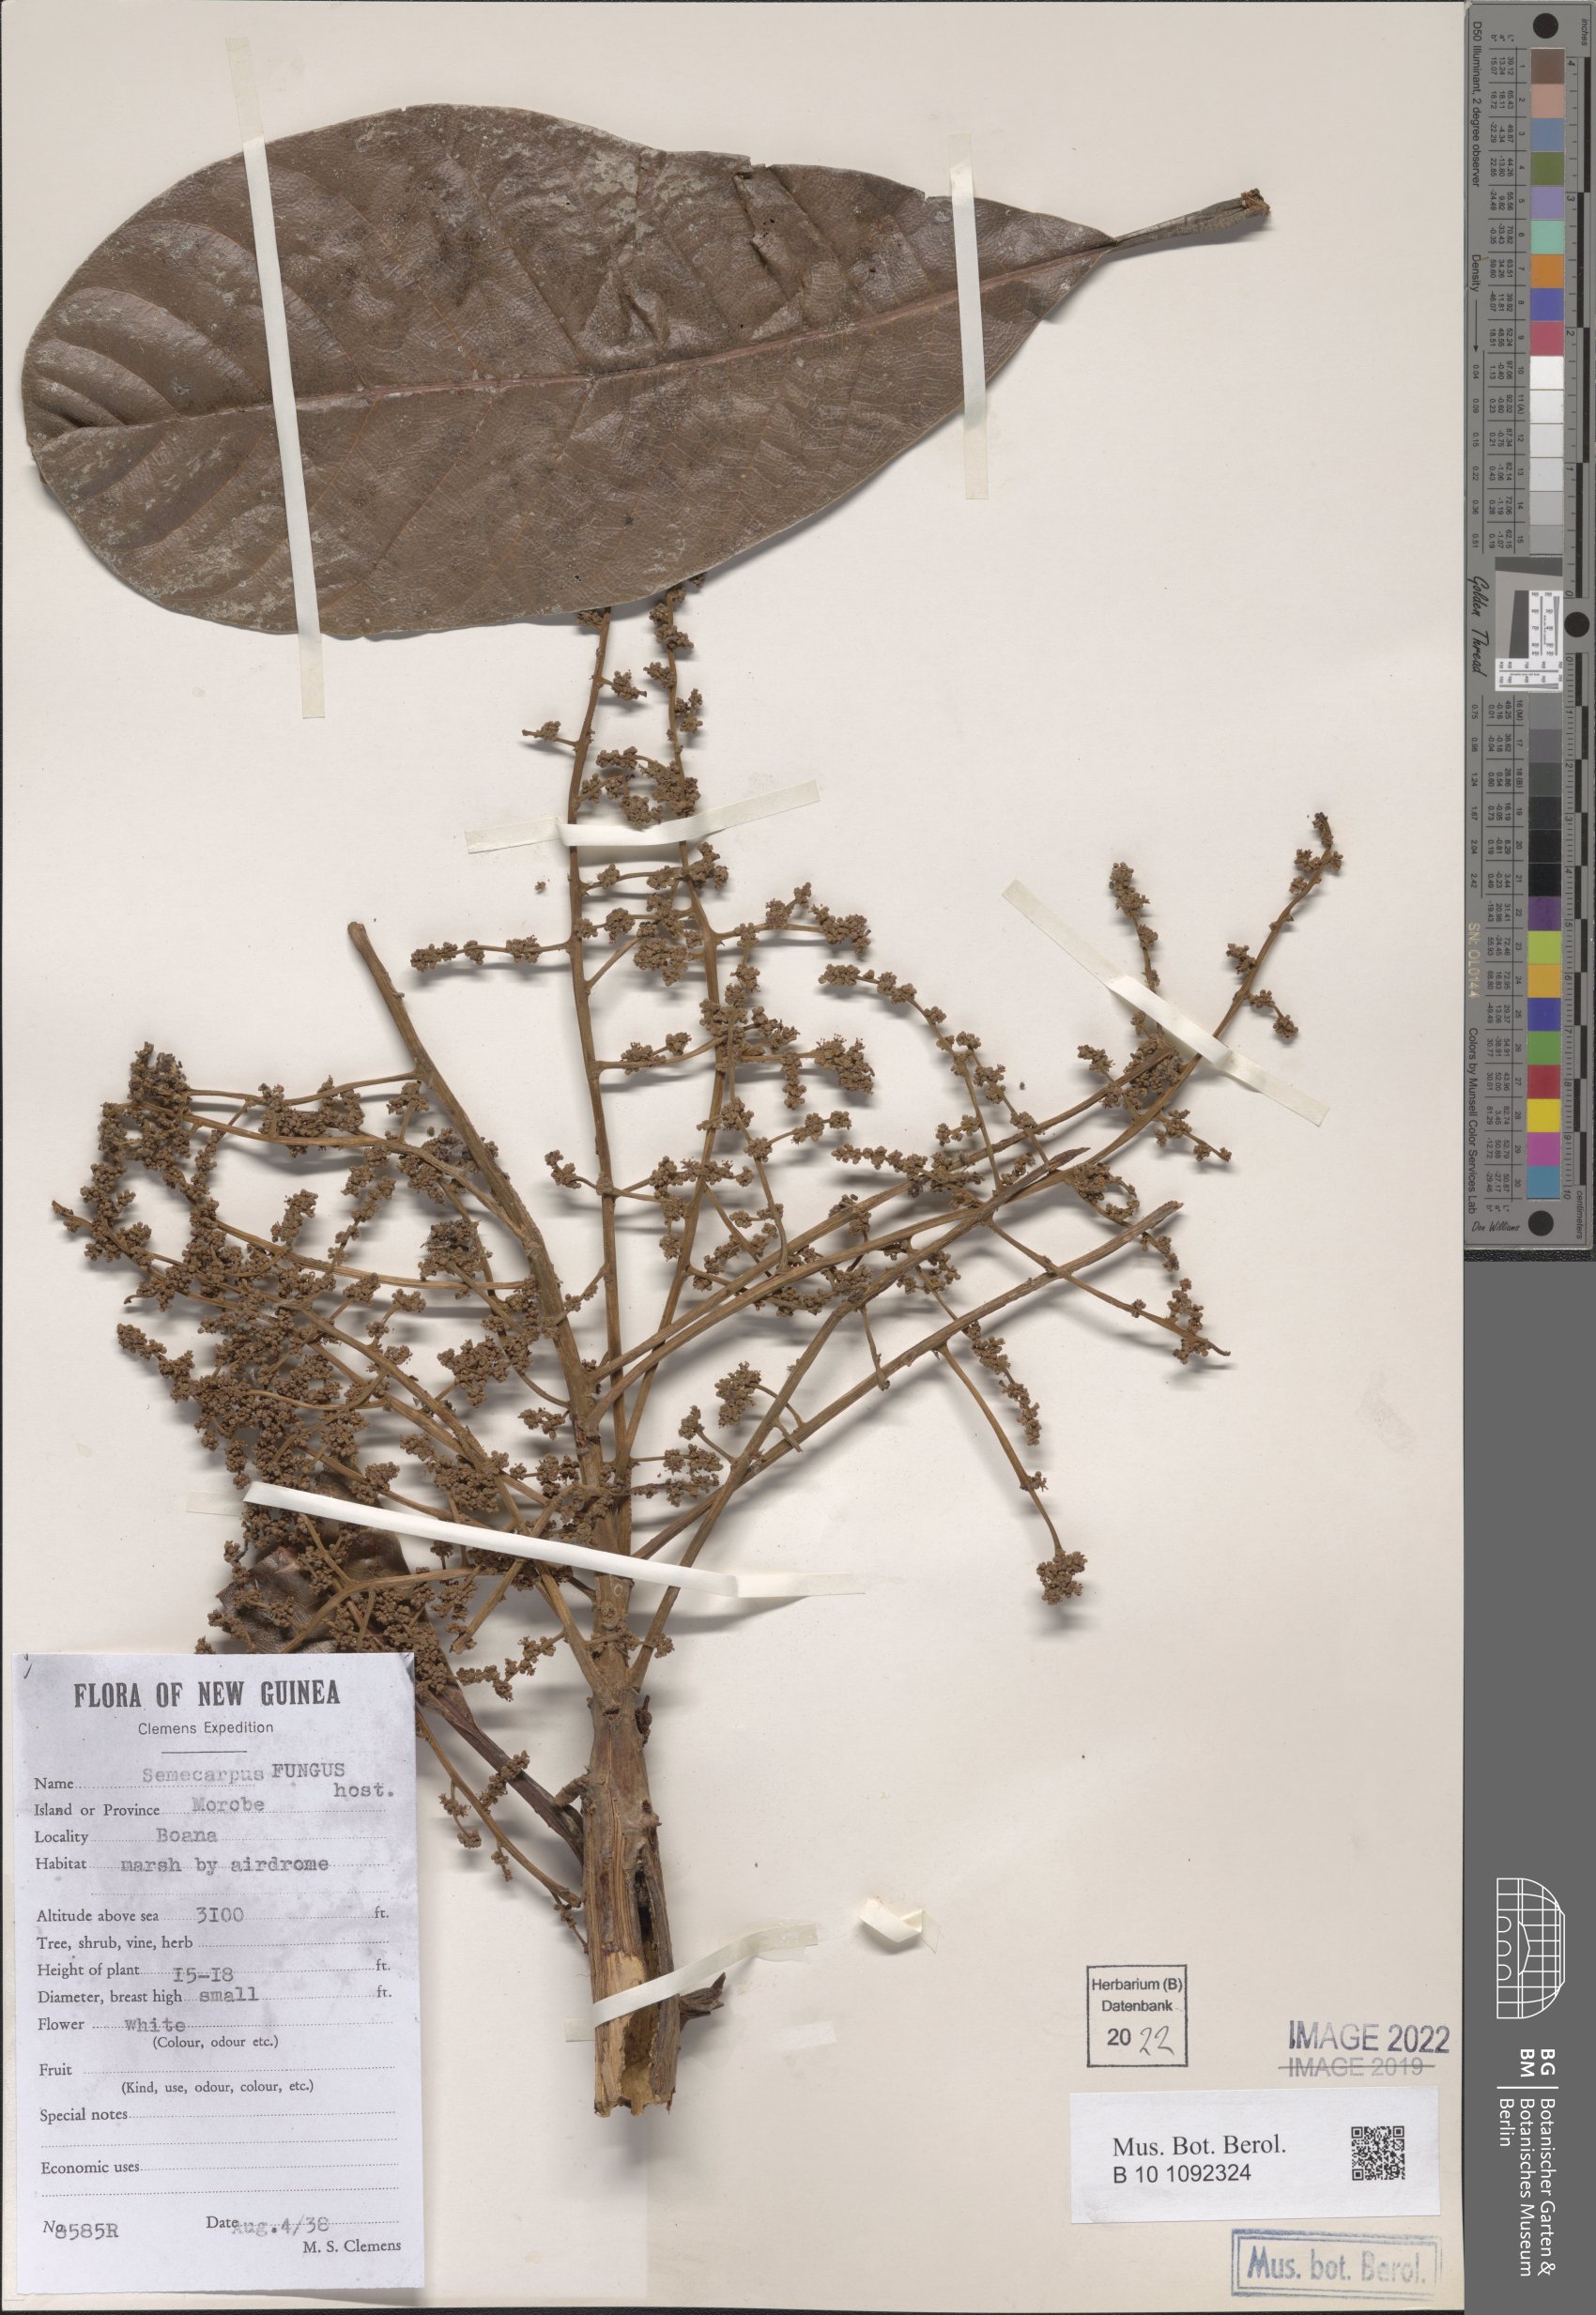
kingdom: Plantae
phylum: Tracheophyta
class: Magnoliopsida
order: Sapindales
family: Anacardiaceae
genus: Semecarpus
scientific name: Semecarpus
